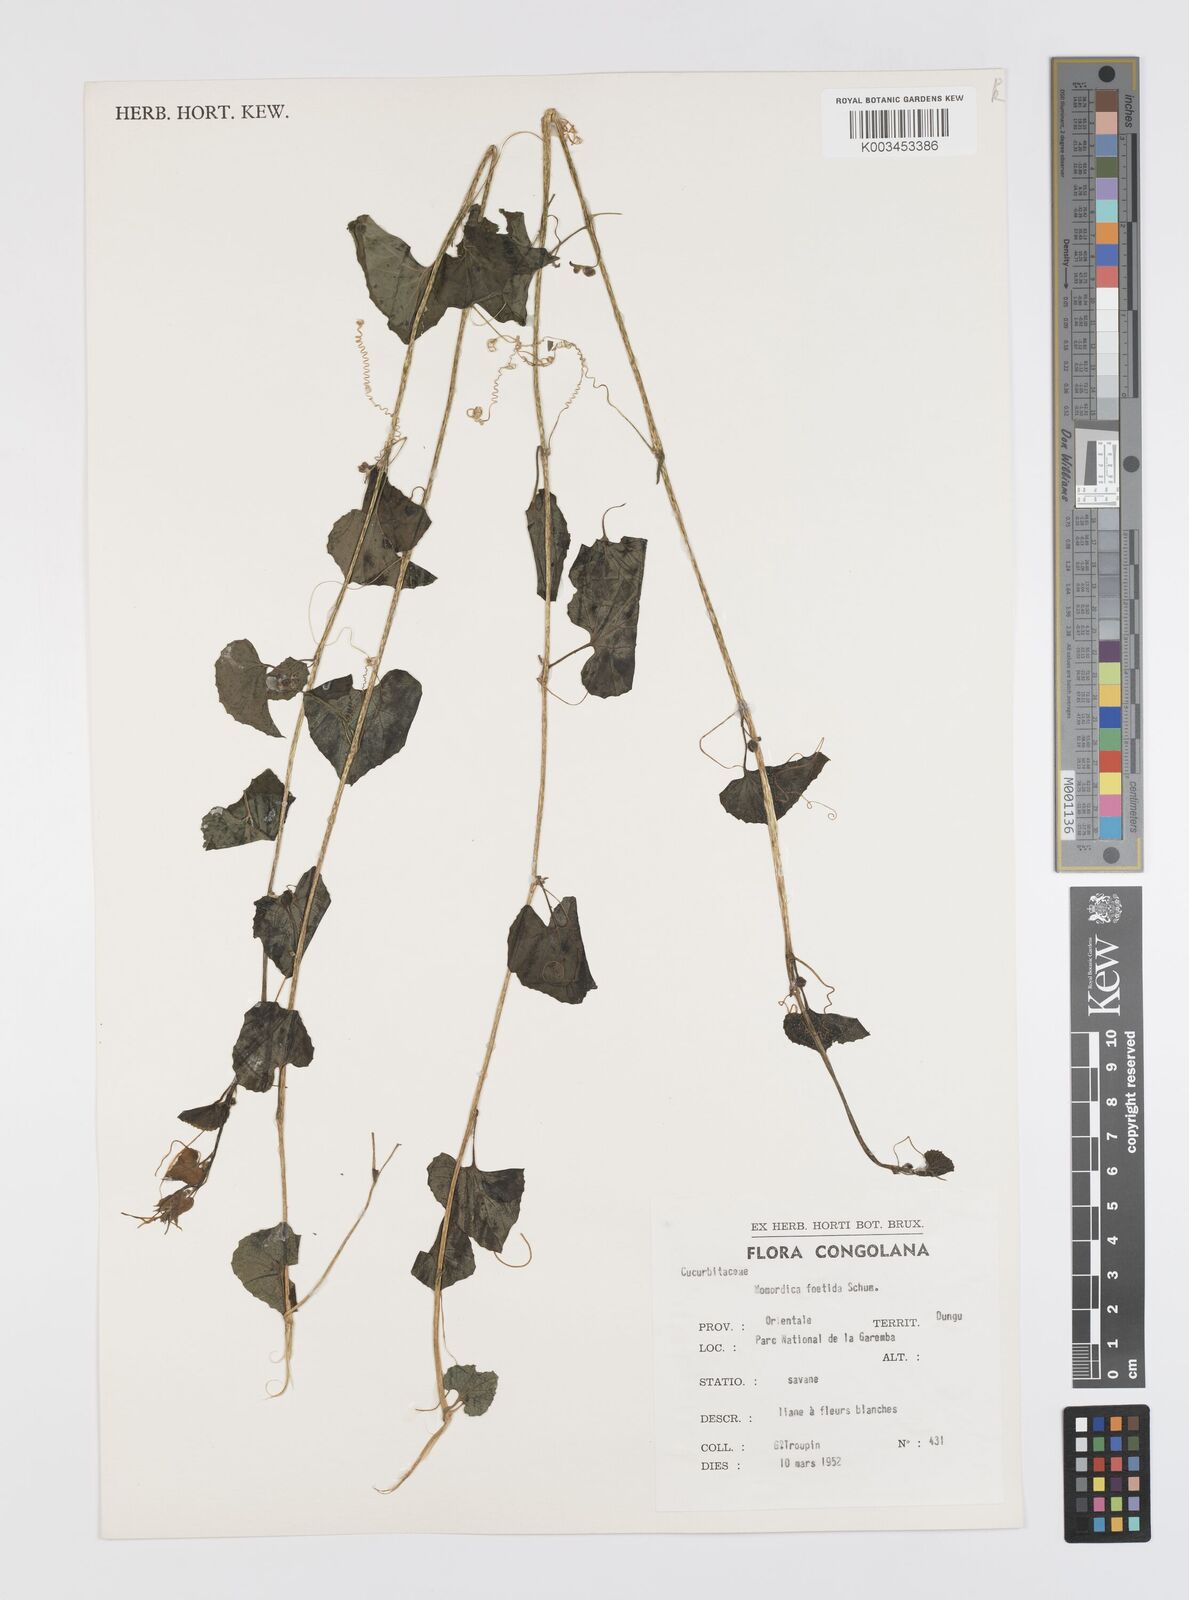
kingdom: Plantae
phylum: Tracheophyta
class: Magnoliopsida
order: Cucurbitales
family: Cucurbitaceae
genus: Momordica
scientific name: Momordica foetida
